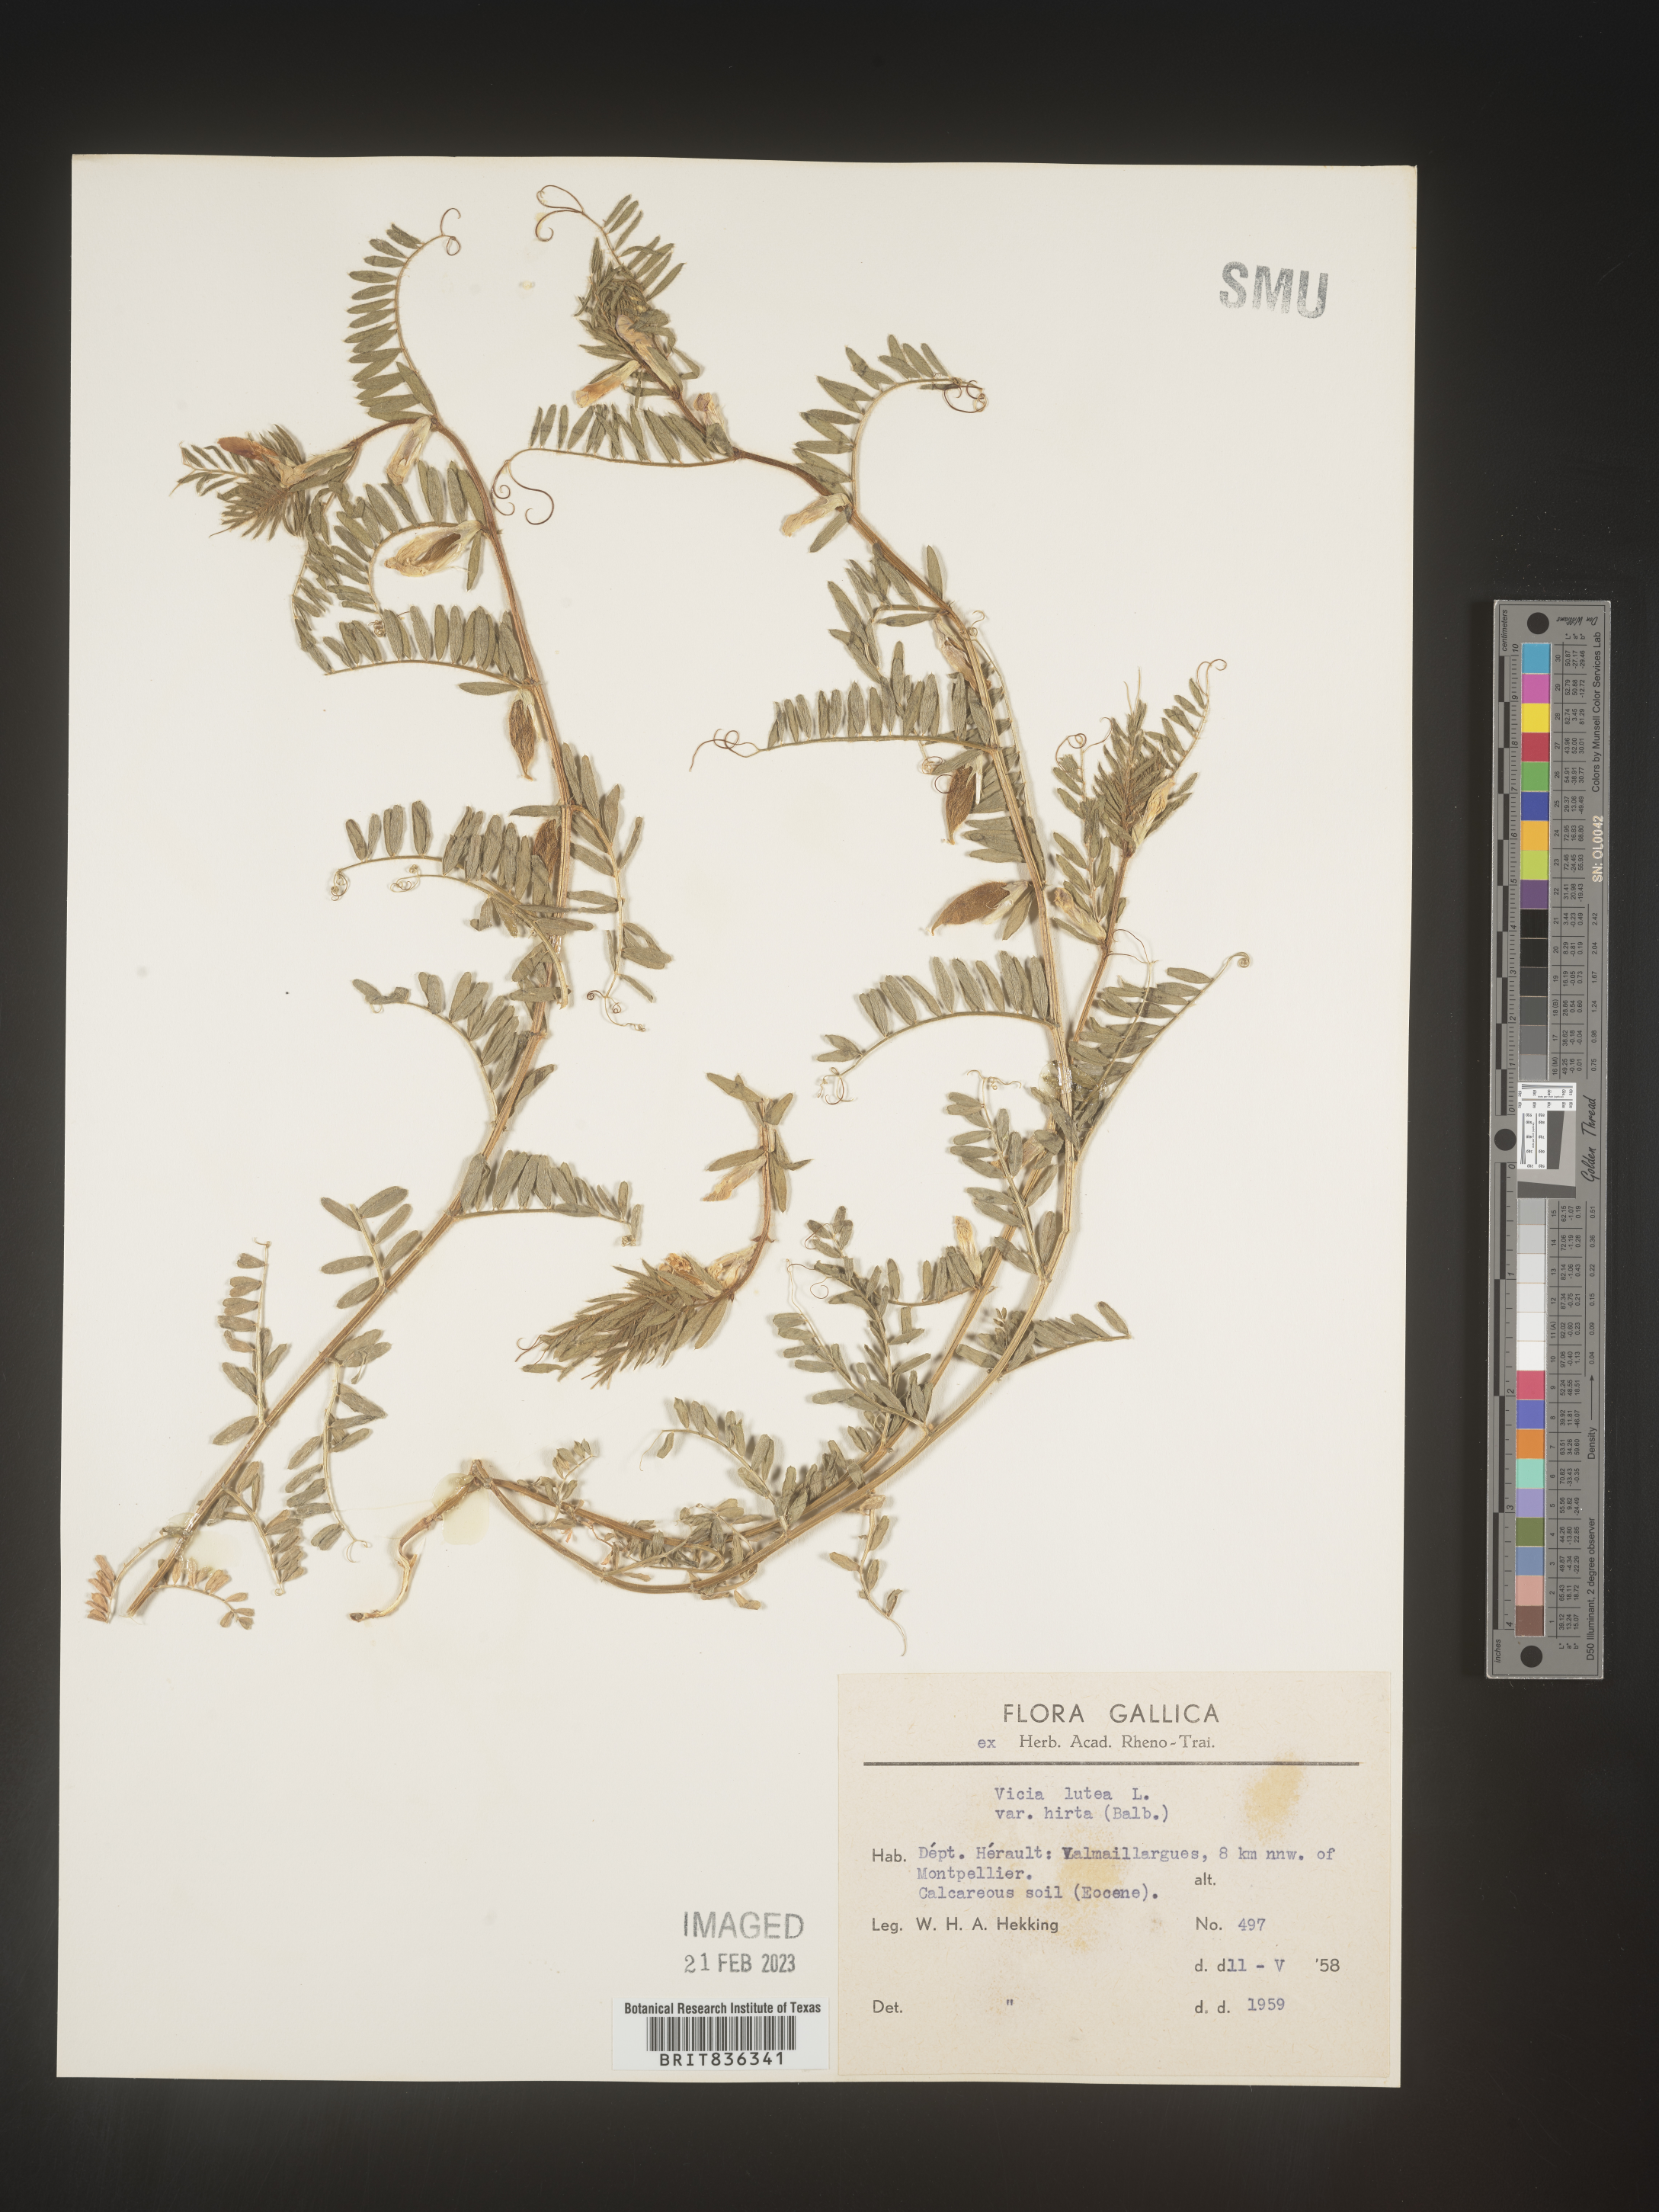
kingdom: Plantae
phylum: Tracheophyta
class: Magnoliopsida
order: Fabales
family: Fabaceae
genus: Vicia
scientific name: Vicia
